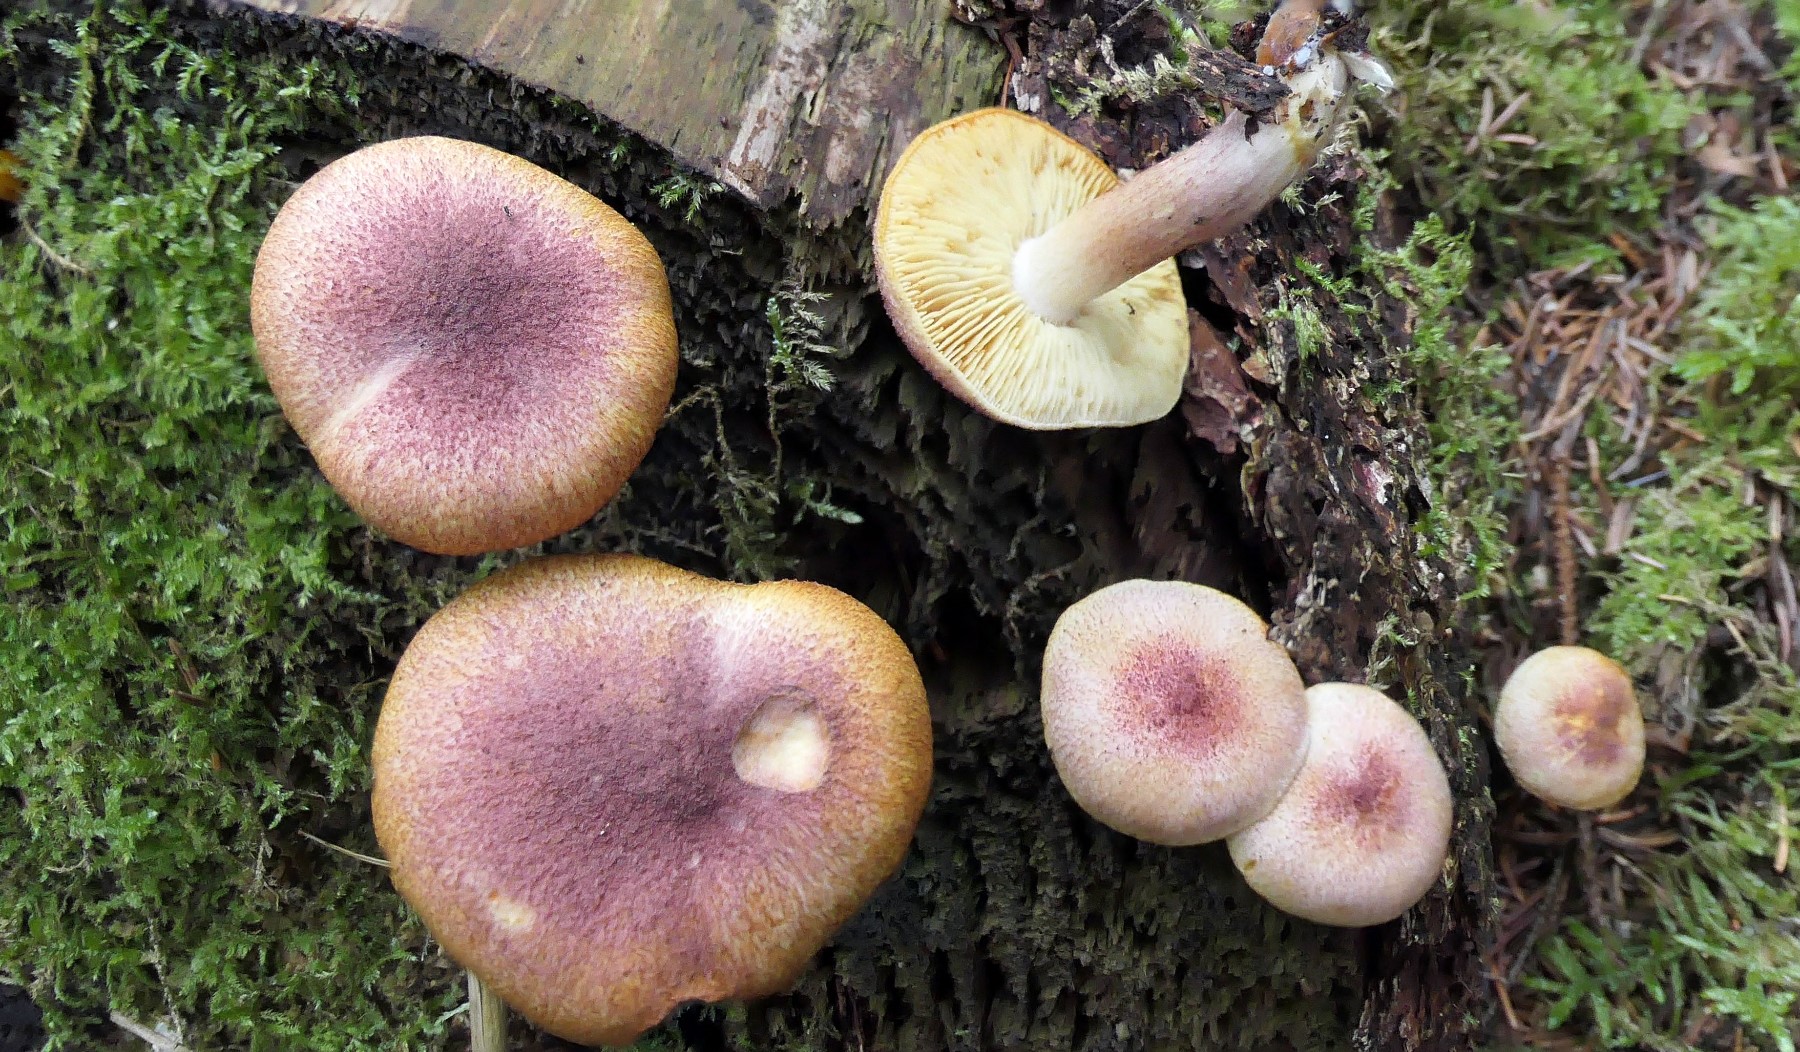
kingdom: Fungi
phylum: Basidiomycota
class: Agaricomycetes
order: Agaricales
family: Tricholomataceae
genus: Tricholomopsis
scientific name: Tricholomopsis rutilans
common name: purpur-væbnerhat
